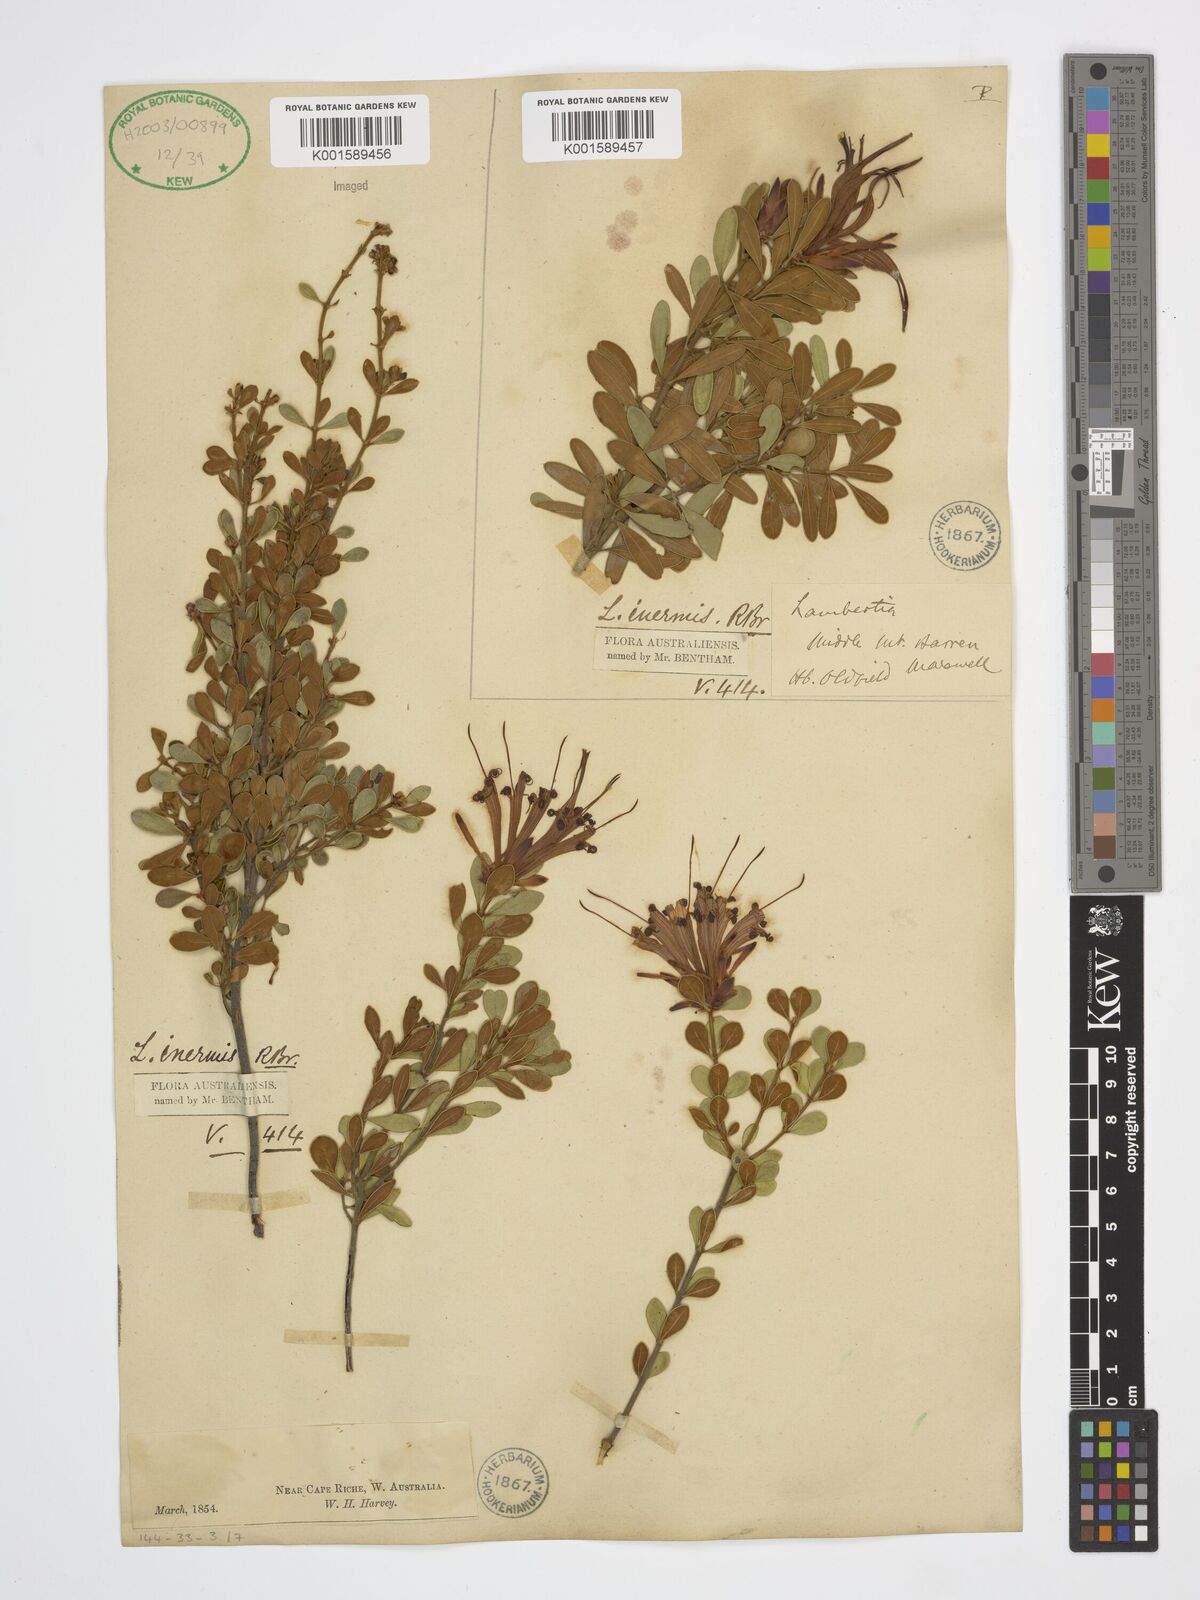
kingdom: Plantae
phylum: Tracheophyta
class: Magnoliopsida
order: Proteales
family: Proteaceae
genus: Lambertia
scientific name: Lambertia inermis
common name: Chittick
